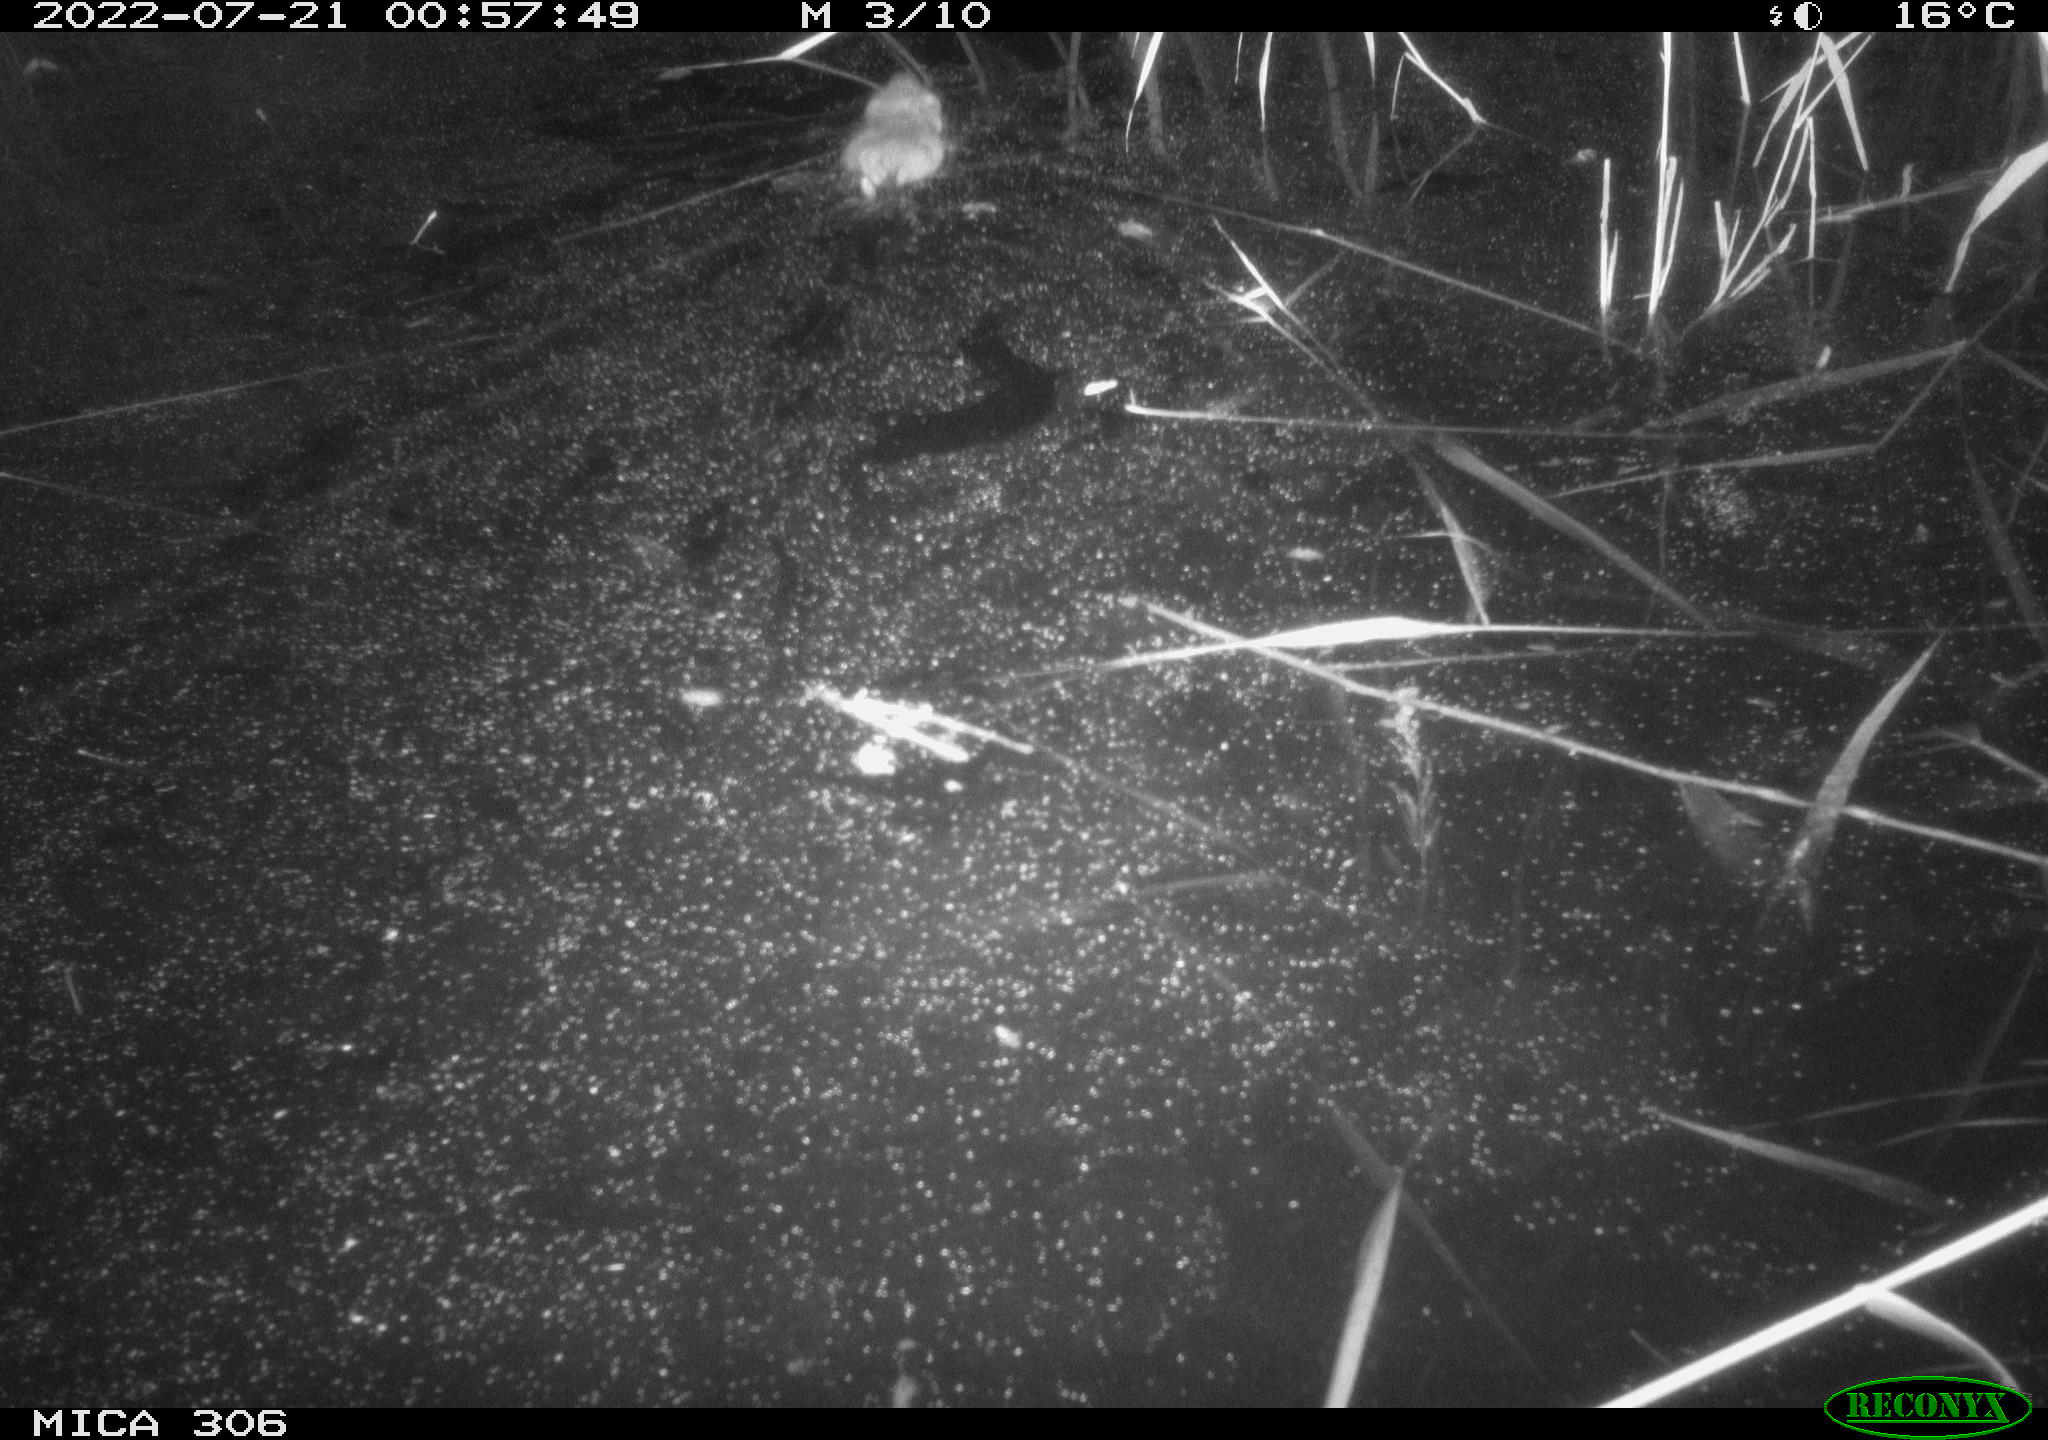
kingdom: Animalia
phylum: Chordata
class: Mammalia
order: Rodentia
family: Cricetidae
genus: Ondatra
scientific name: Ondatra zibethicus
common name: Muskrat
